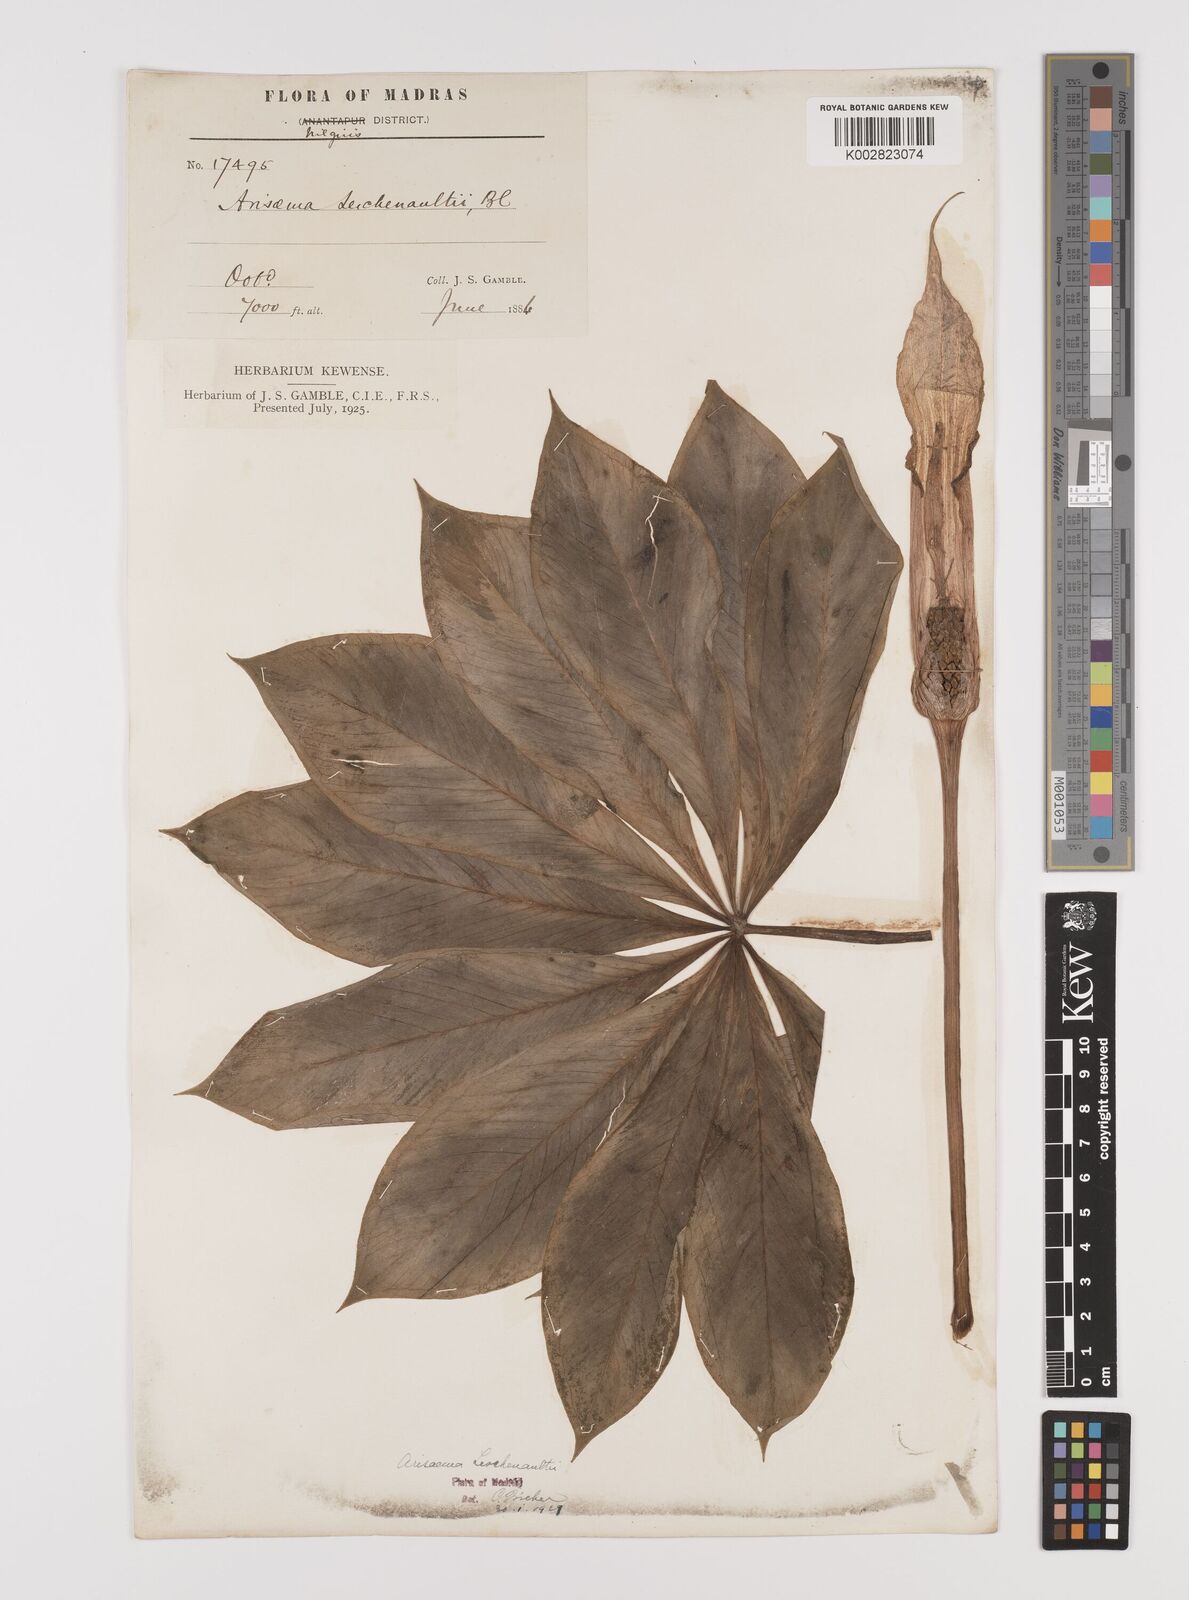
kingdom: Plantae
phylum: Tracheophyta
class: Liliopsida
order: Alismatales
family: Araceae
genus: Arisaema
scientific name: Arisaema leschenaultii
